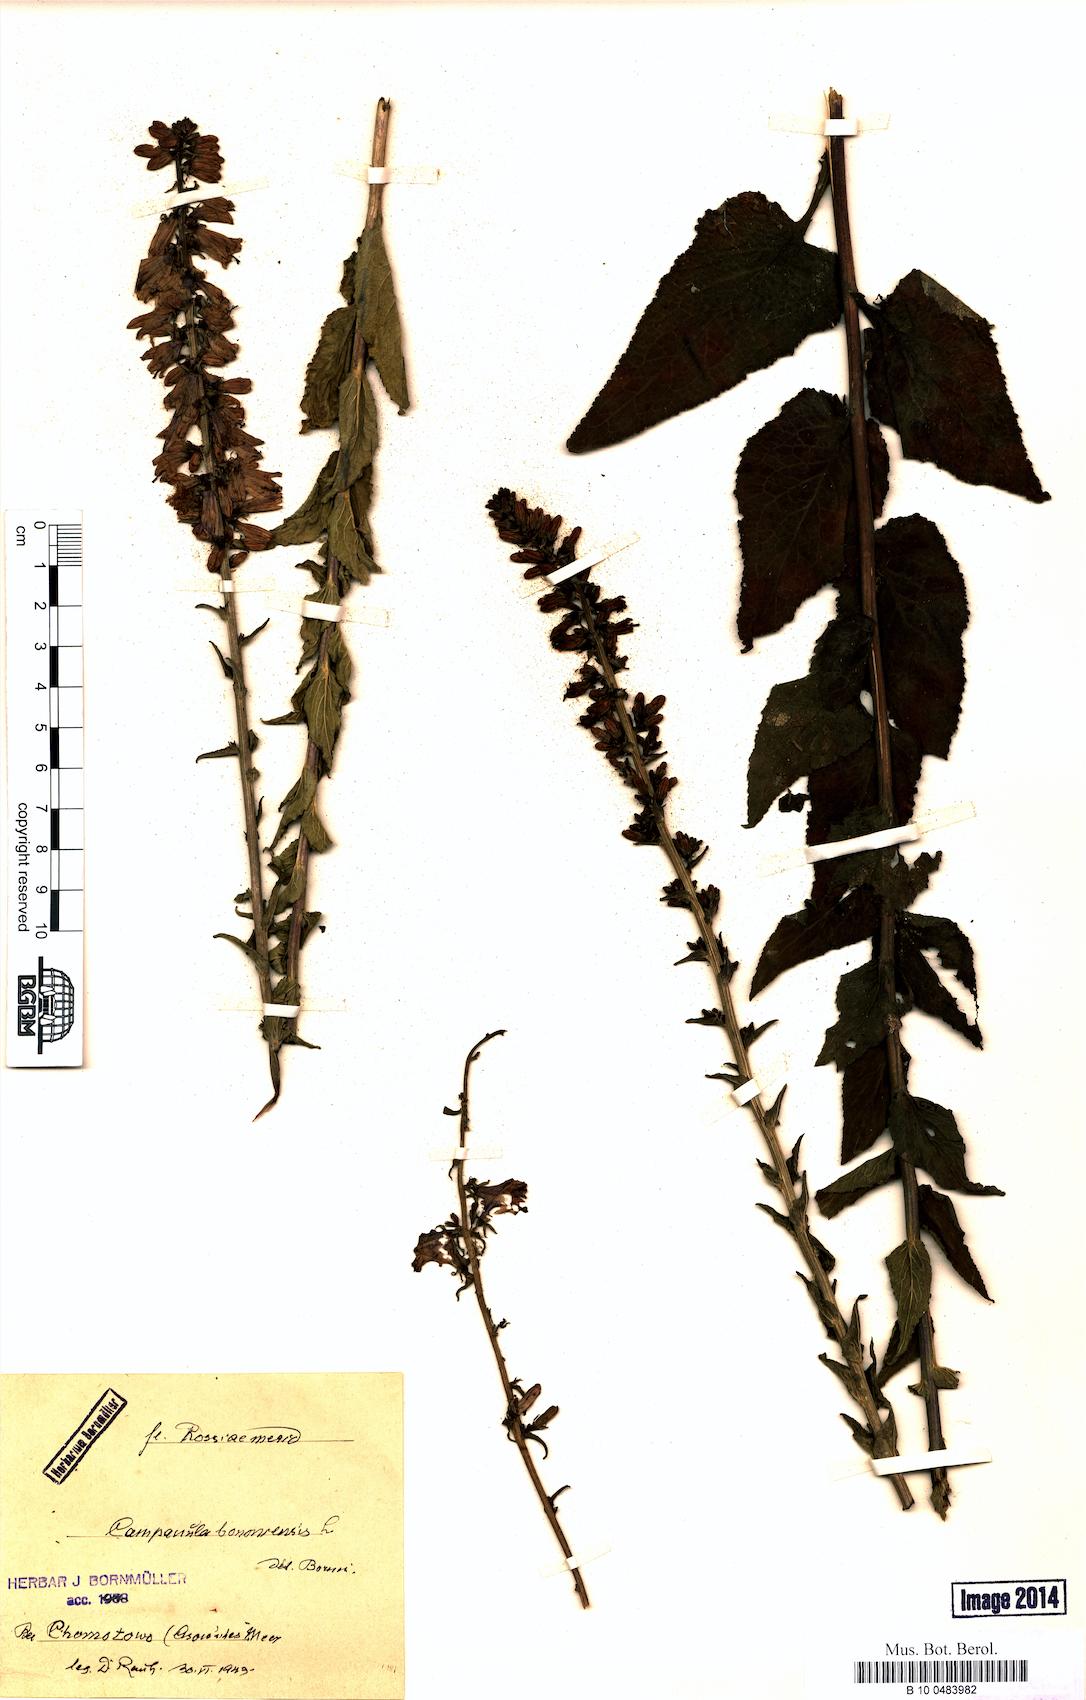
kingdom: Plantae
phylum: Tracheophyta
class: Magnoliopsida
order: Asterales
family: Campanulaceae
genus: Campanula
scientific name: Campanula bononiensis
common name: Pale bellflower
